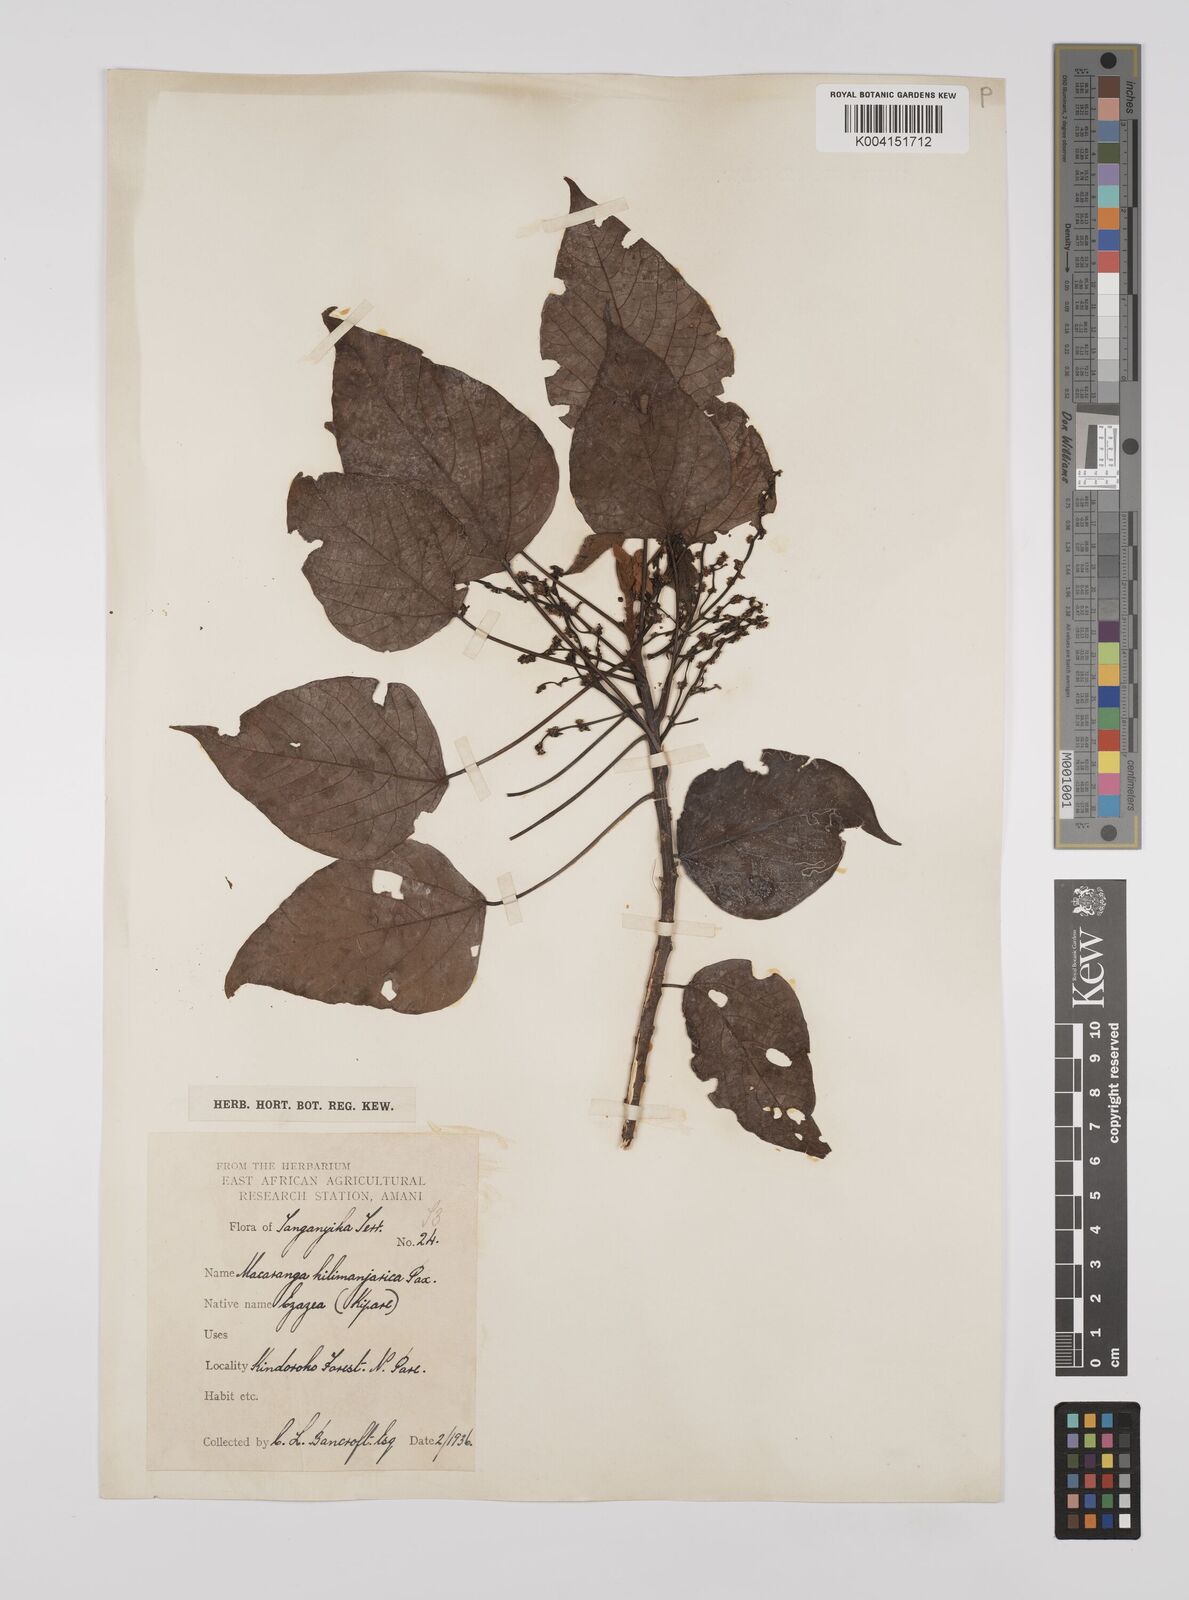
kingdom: Plantae
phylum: Tracheophyta
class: Magnoliopsida
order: Malpighiales
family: Euphorbiaceae
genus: Macaranga
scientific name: Macaranga kilimandscharica
